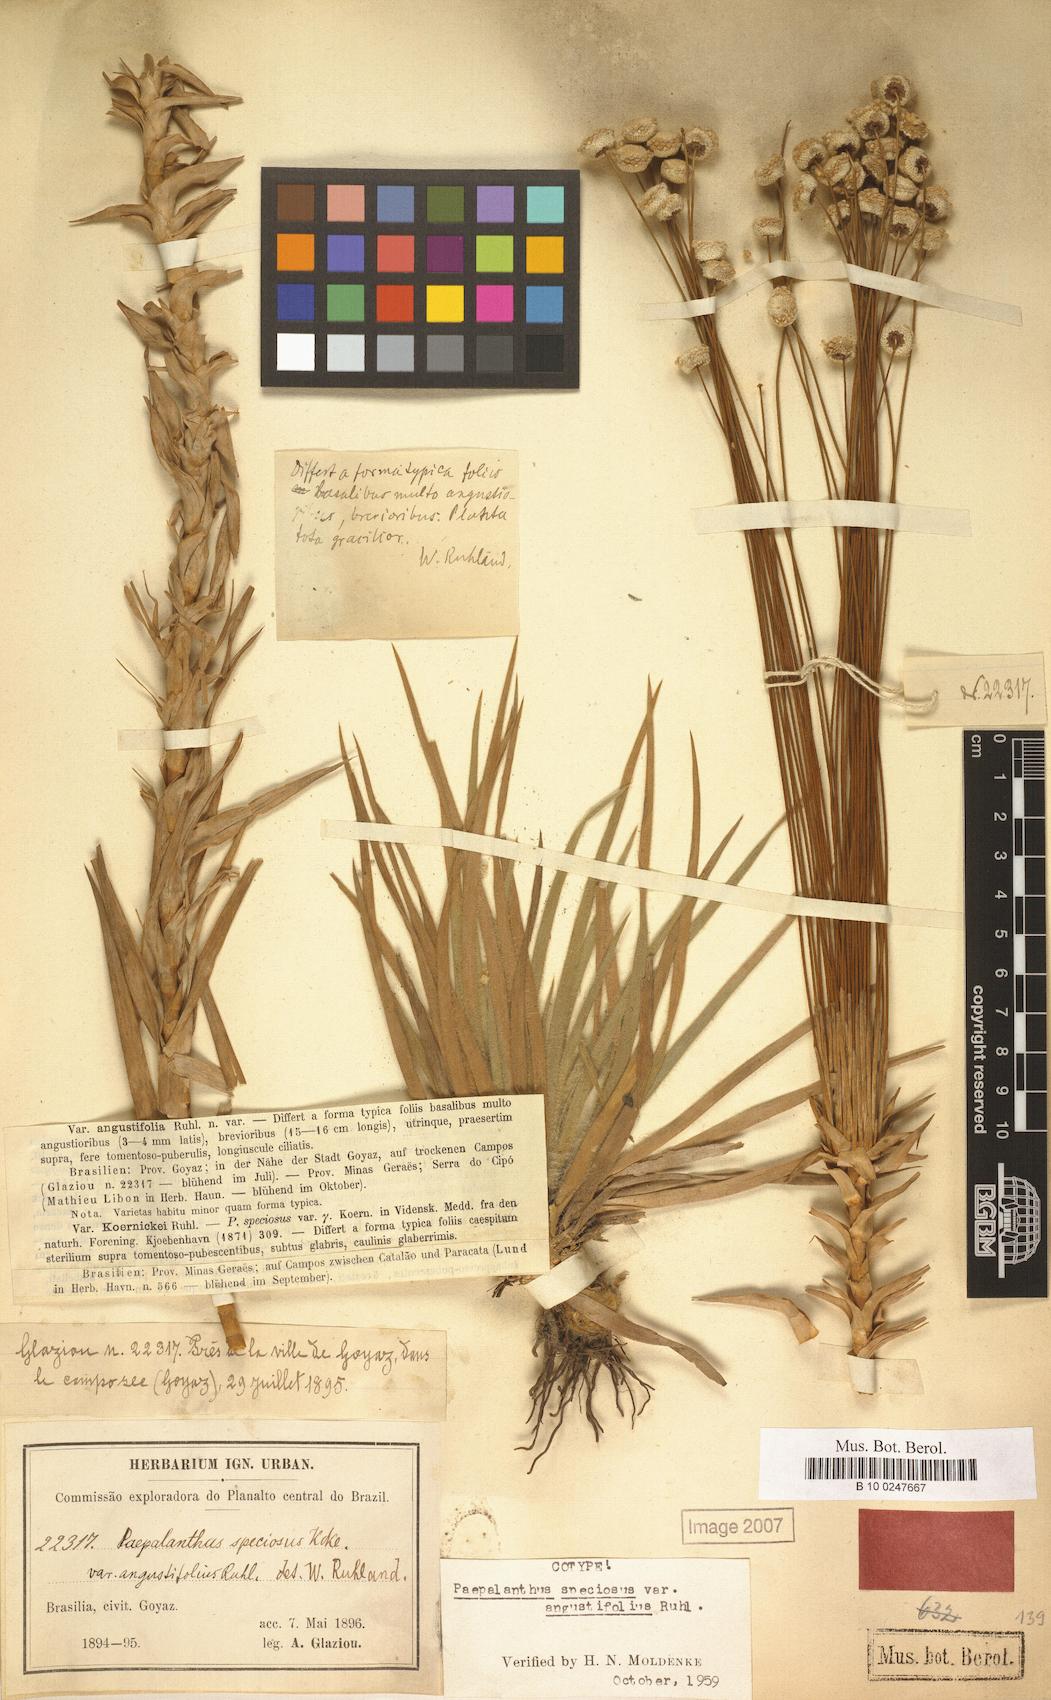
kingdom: Plantae
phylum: Tracheophyta
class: Liliopsida
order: Poales
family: Eriocaulaceae
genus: Paepalanthus
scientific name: Paepalanthus chiquitensis
